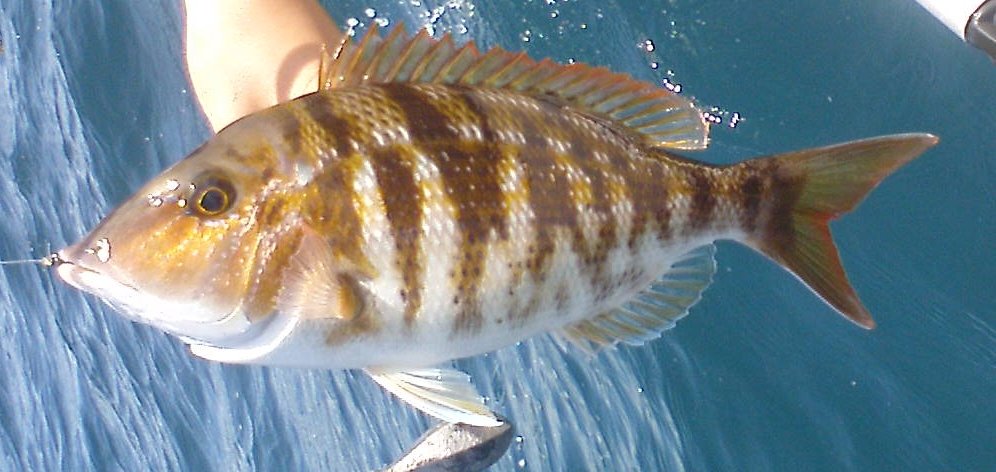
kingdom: Animalia
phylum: Chordata
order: Perciformes
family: Lethrinidae
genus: Lethrinus
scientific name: Lethrinus enigmaticus
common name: Blackeye emperor
